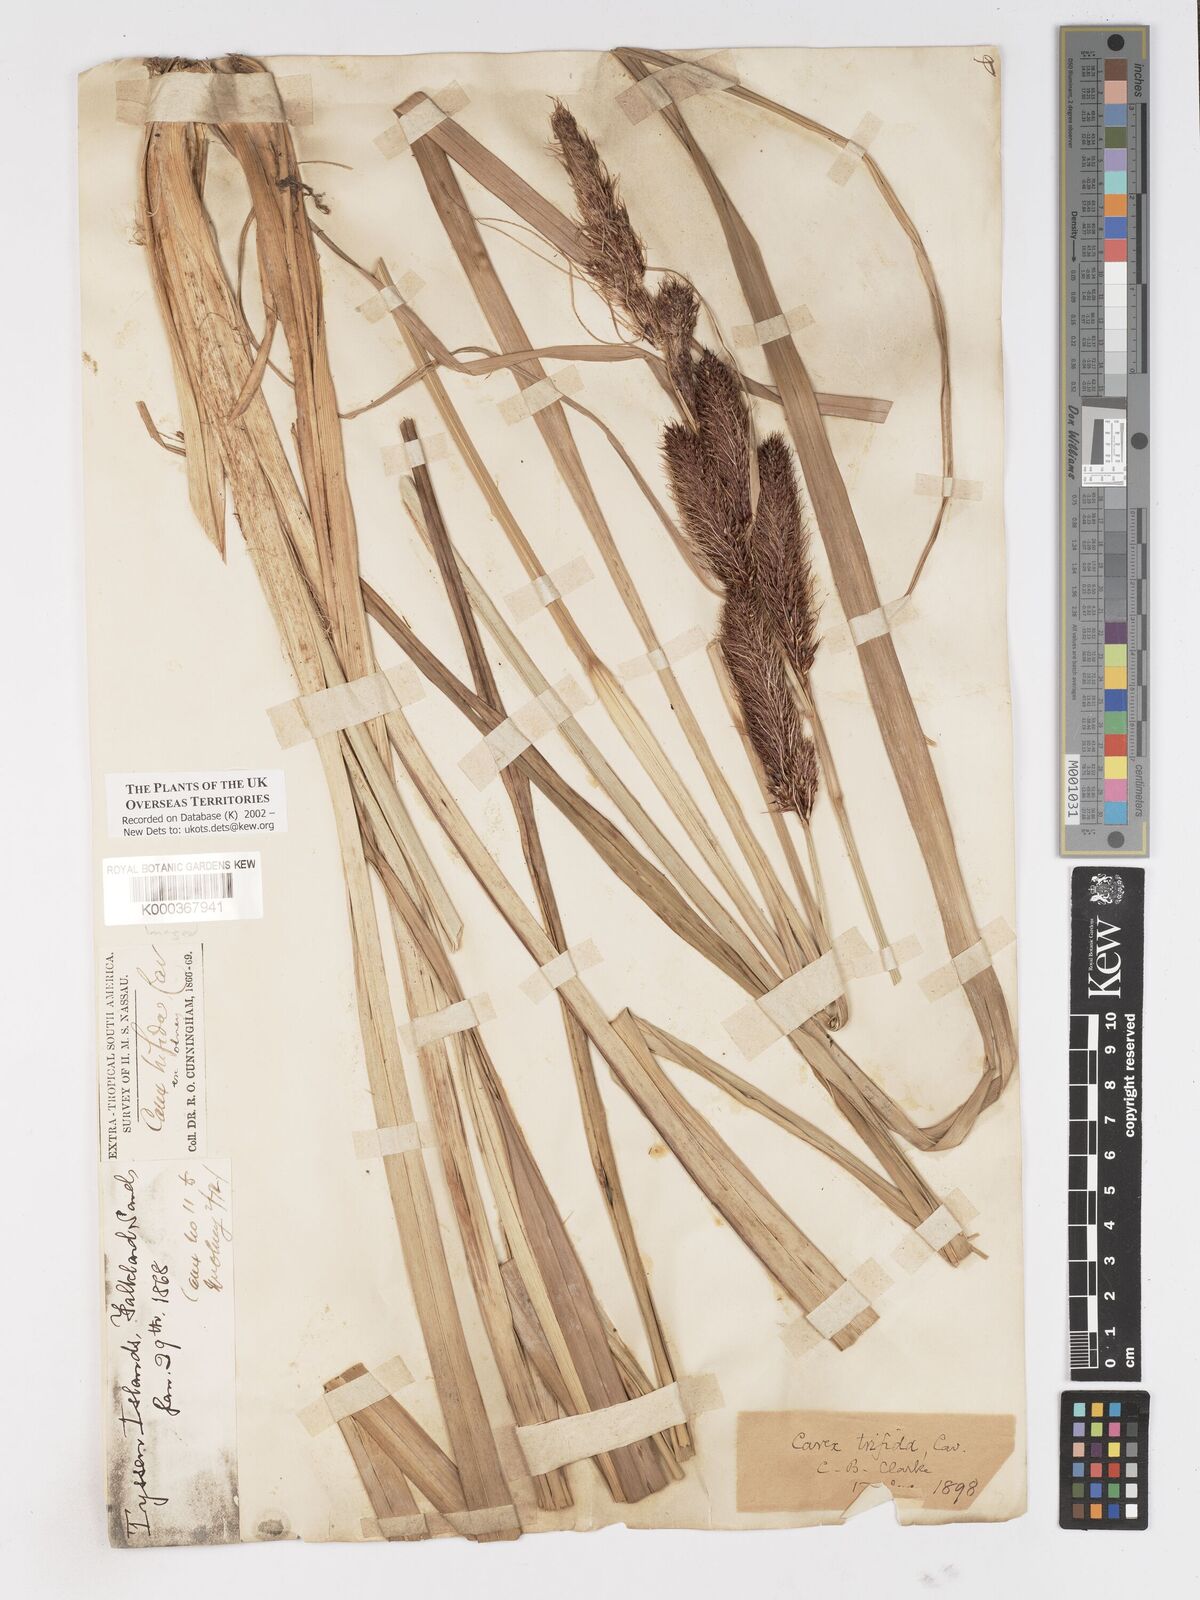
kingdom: Plantae
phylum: Tracheophyta
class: Liliopsida
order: Poales
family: Cyperaceae
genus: Carex
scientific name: Carex trifida
